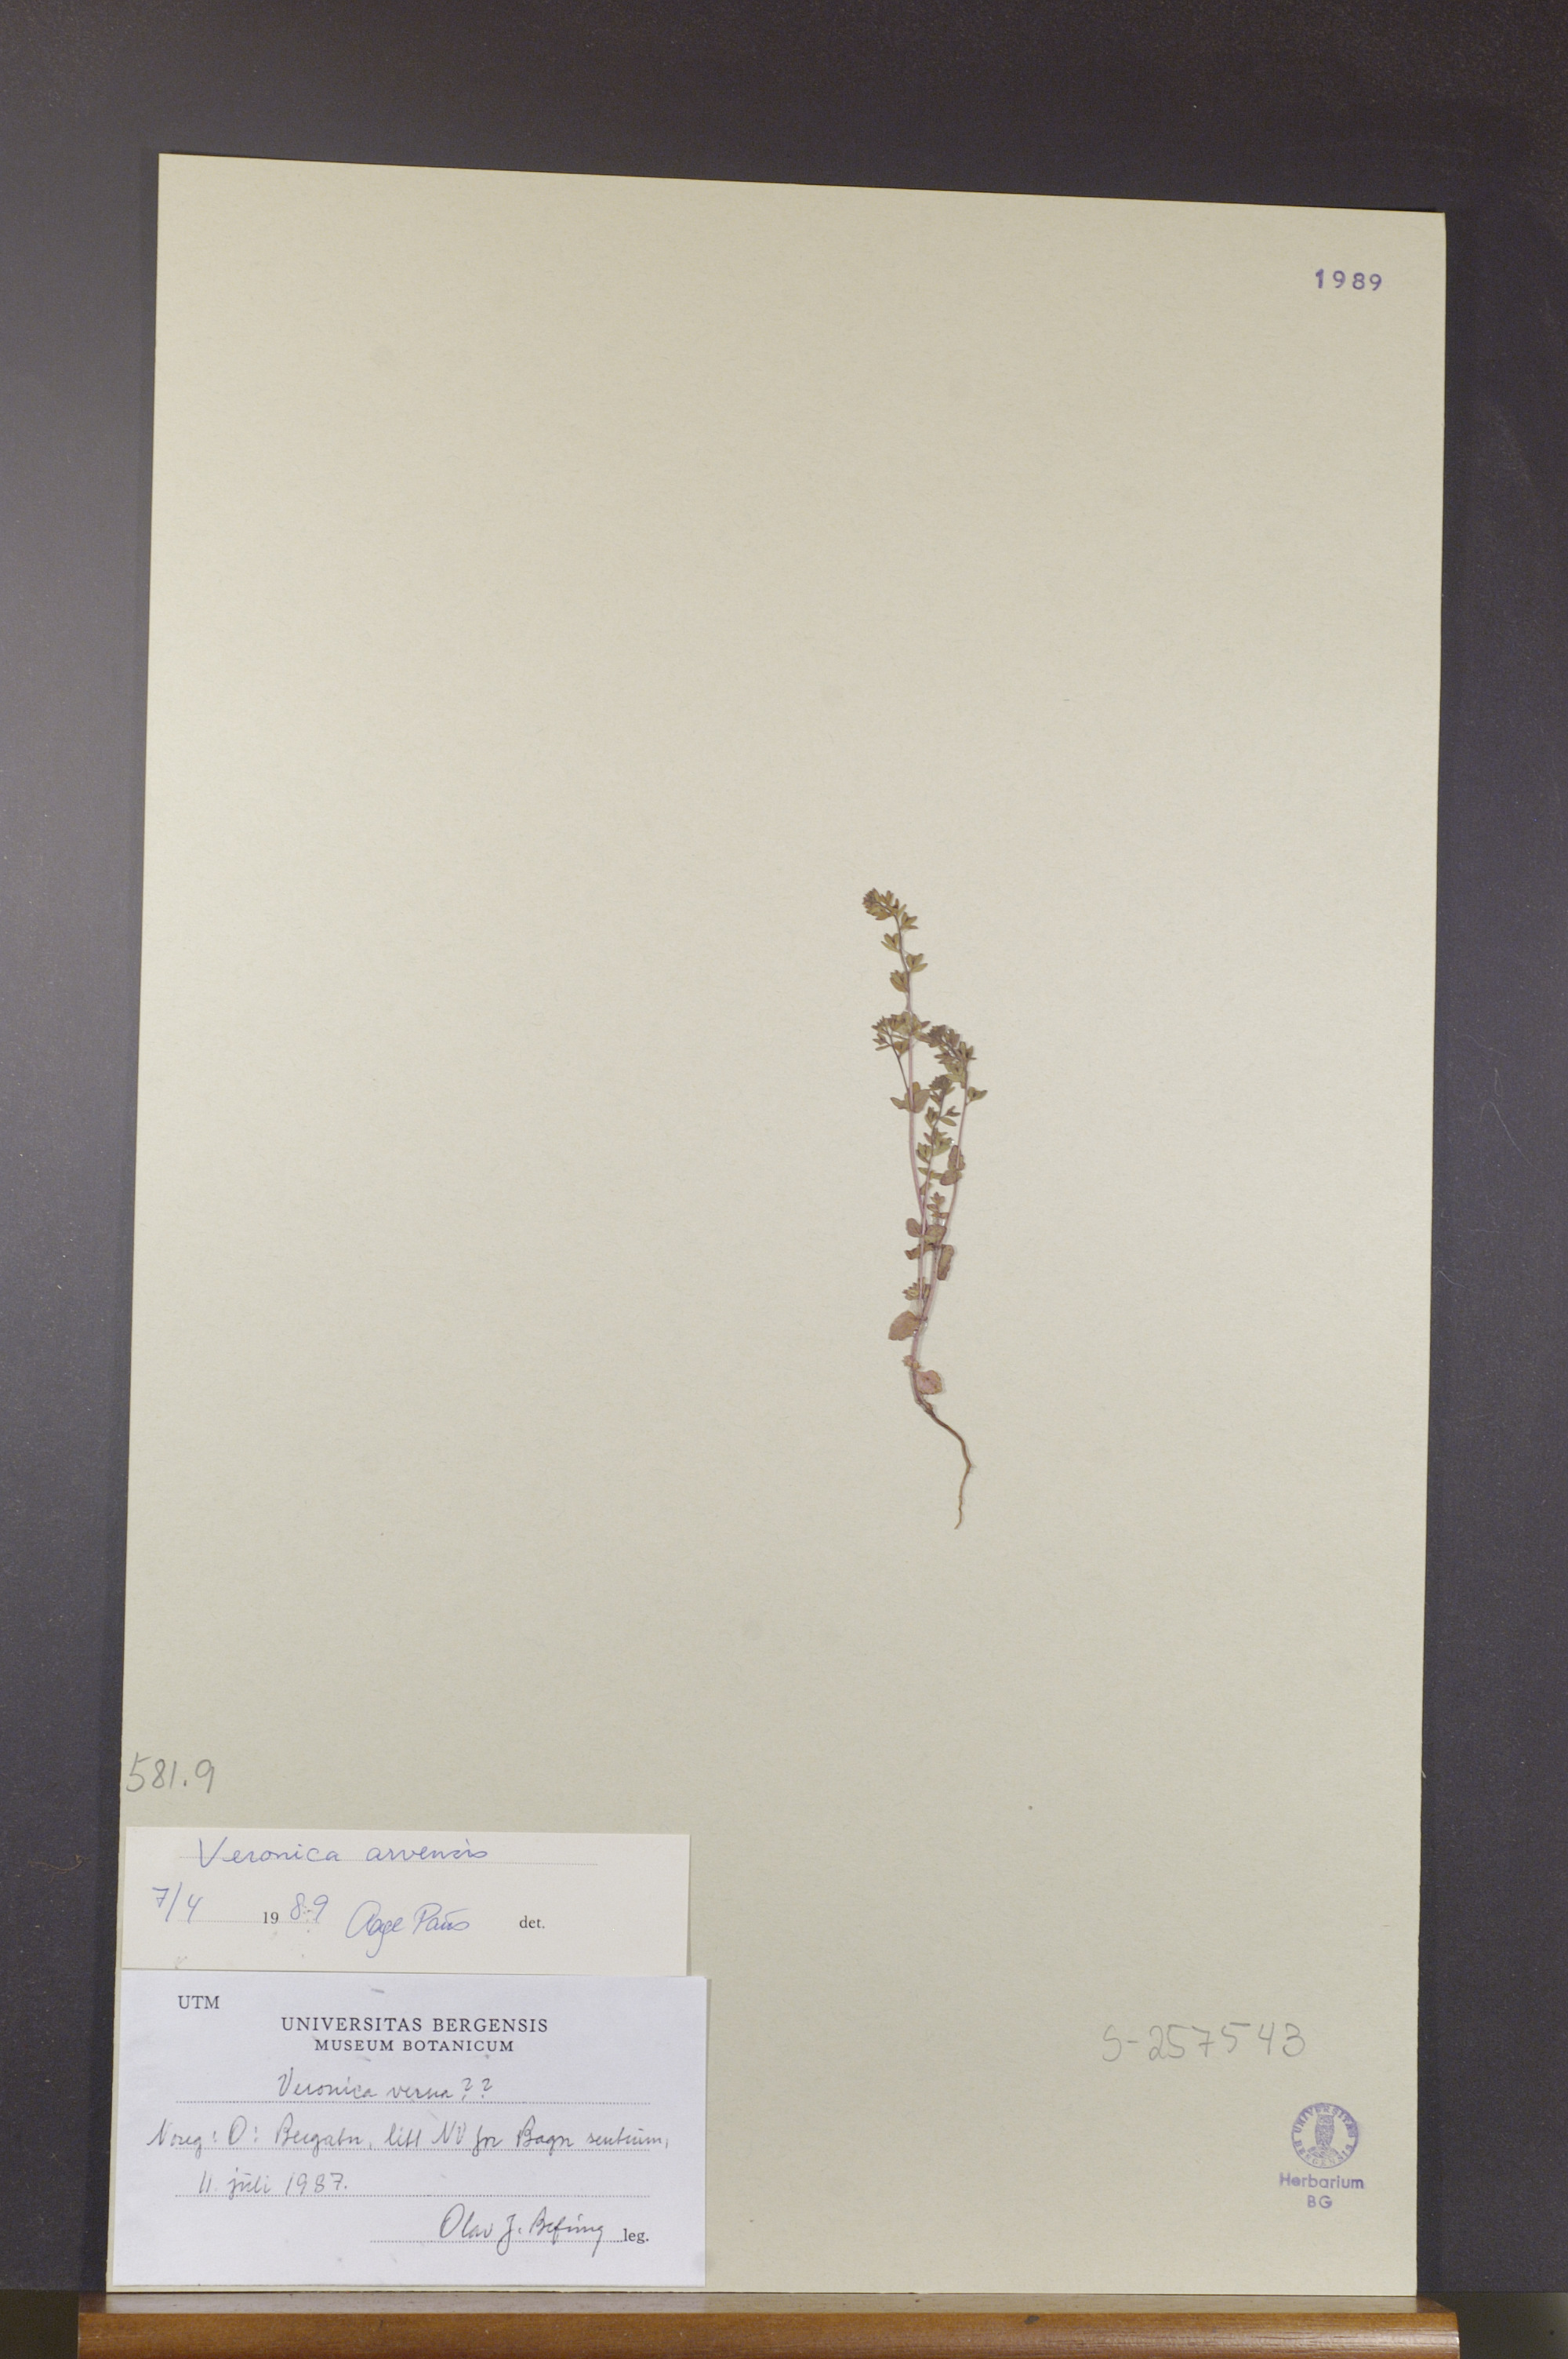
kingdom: Plantae
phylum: Tracheophyta
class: Magnoliopsida
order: Lamiales
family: Plantaginaceae
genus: Veronica
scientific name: Veronica arvensis
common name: Corn speedwell
